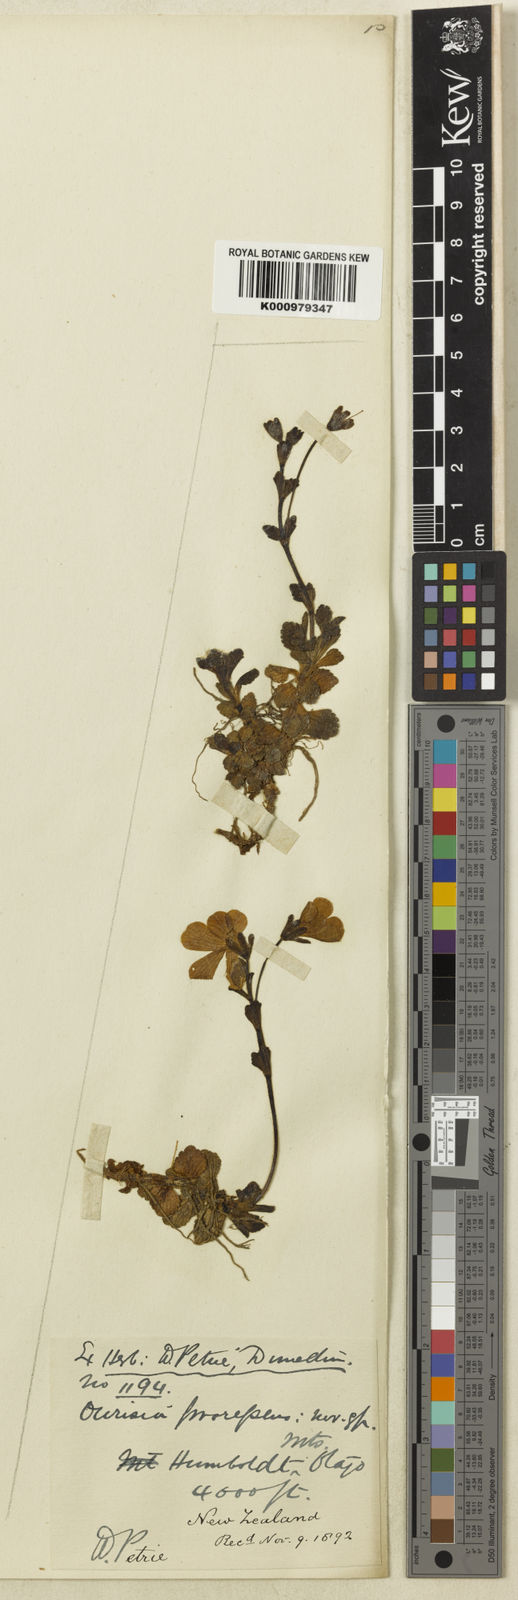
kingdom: Plantae
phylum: Tracheophyta
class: Magnoliopsida
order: Lamiales
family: Plantaginaceae
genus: Ourisia
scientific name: Ourisia prorepens
